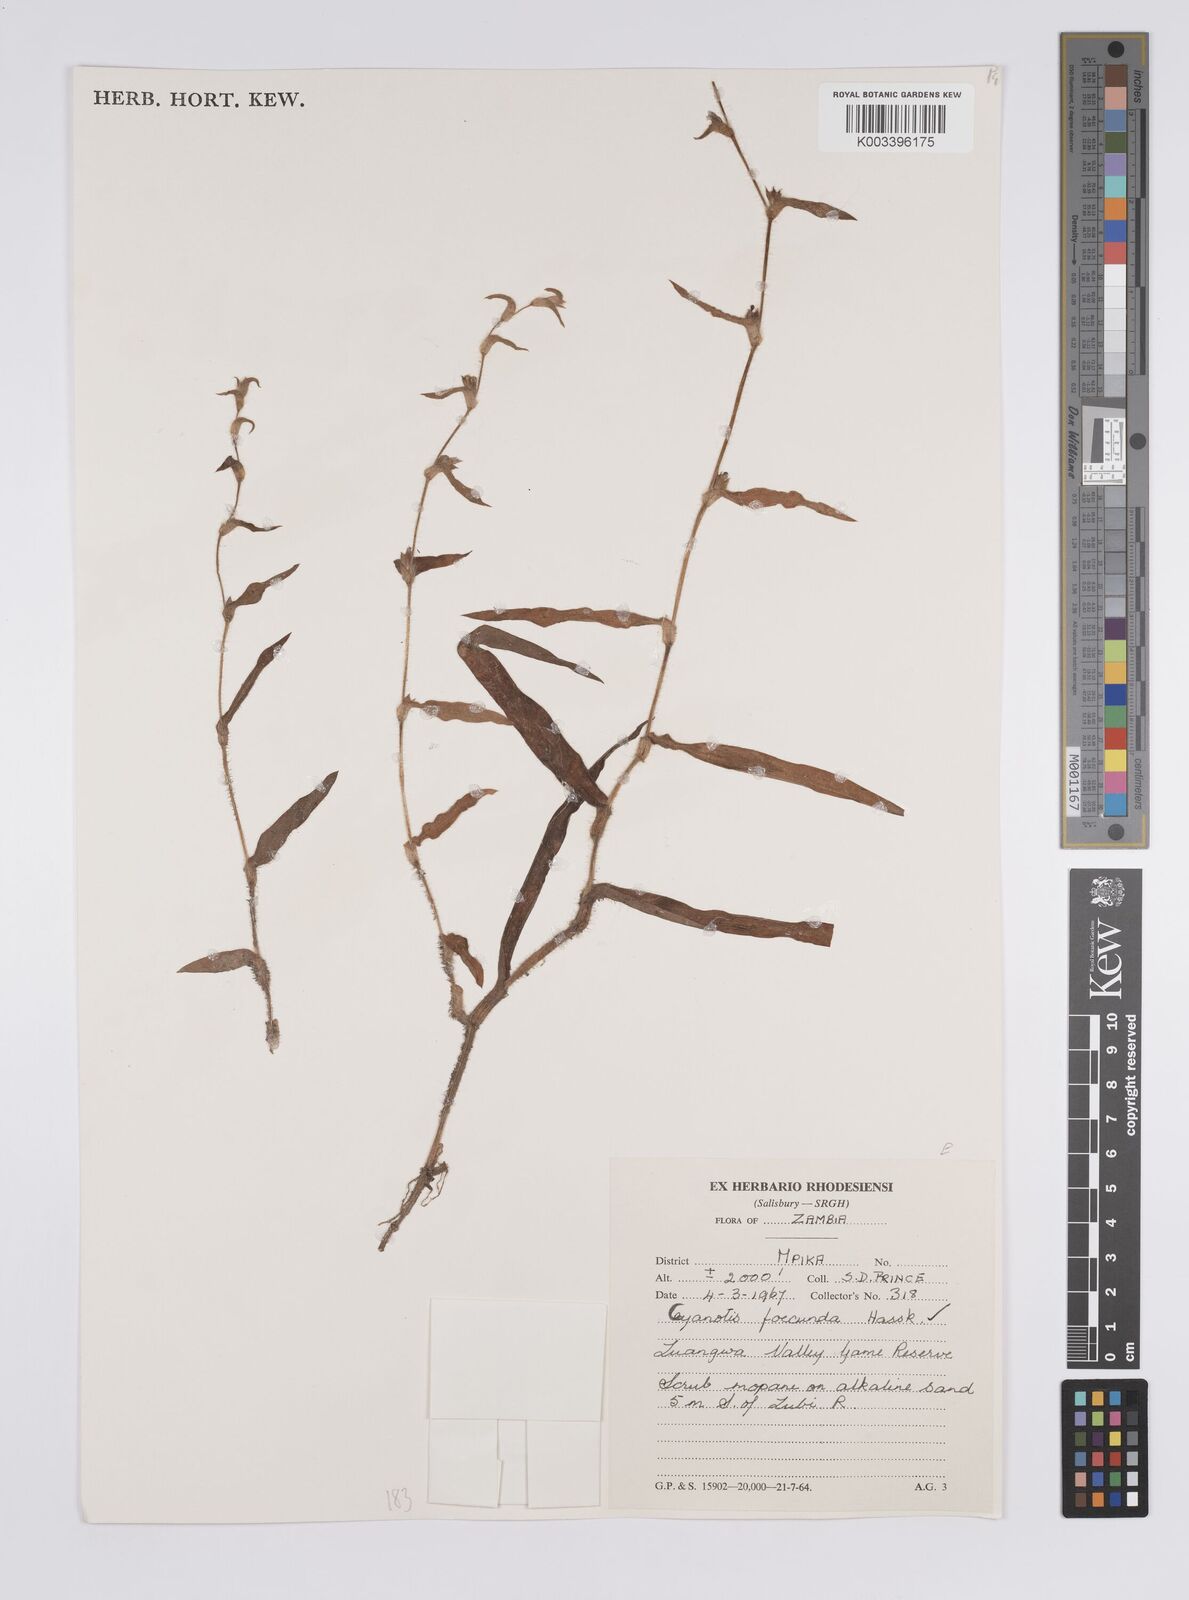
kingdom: Plantae
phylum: Tracheophyta
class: Liliopsida
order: Commelinales
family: Commelinaceae
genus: Cyanotis
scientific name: Cyanotis foecunda
